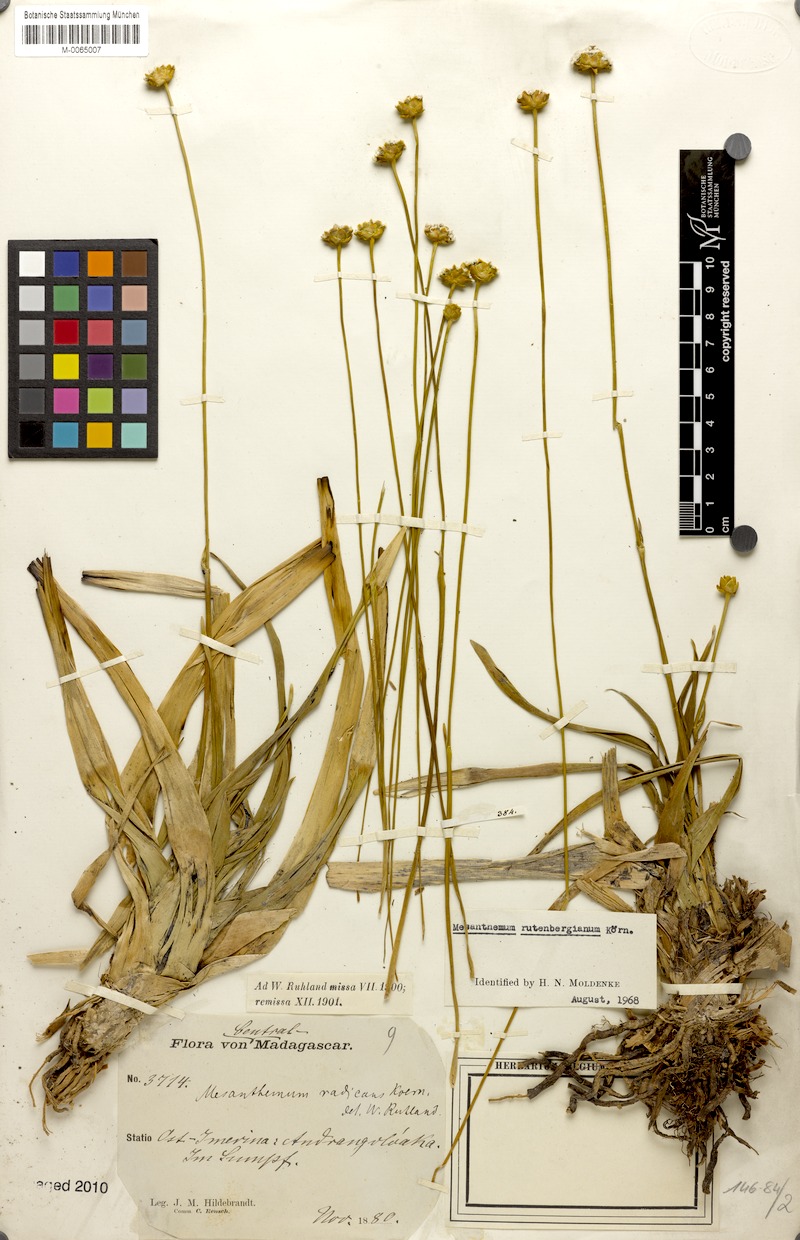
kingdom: Plantae
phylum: Tracheophyta
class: Liliopsida
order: Poales
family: Eriocaulaceae
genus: Mesanthemum
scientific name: Mesanthemum pubescens
